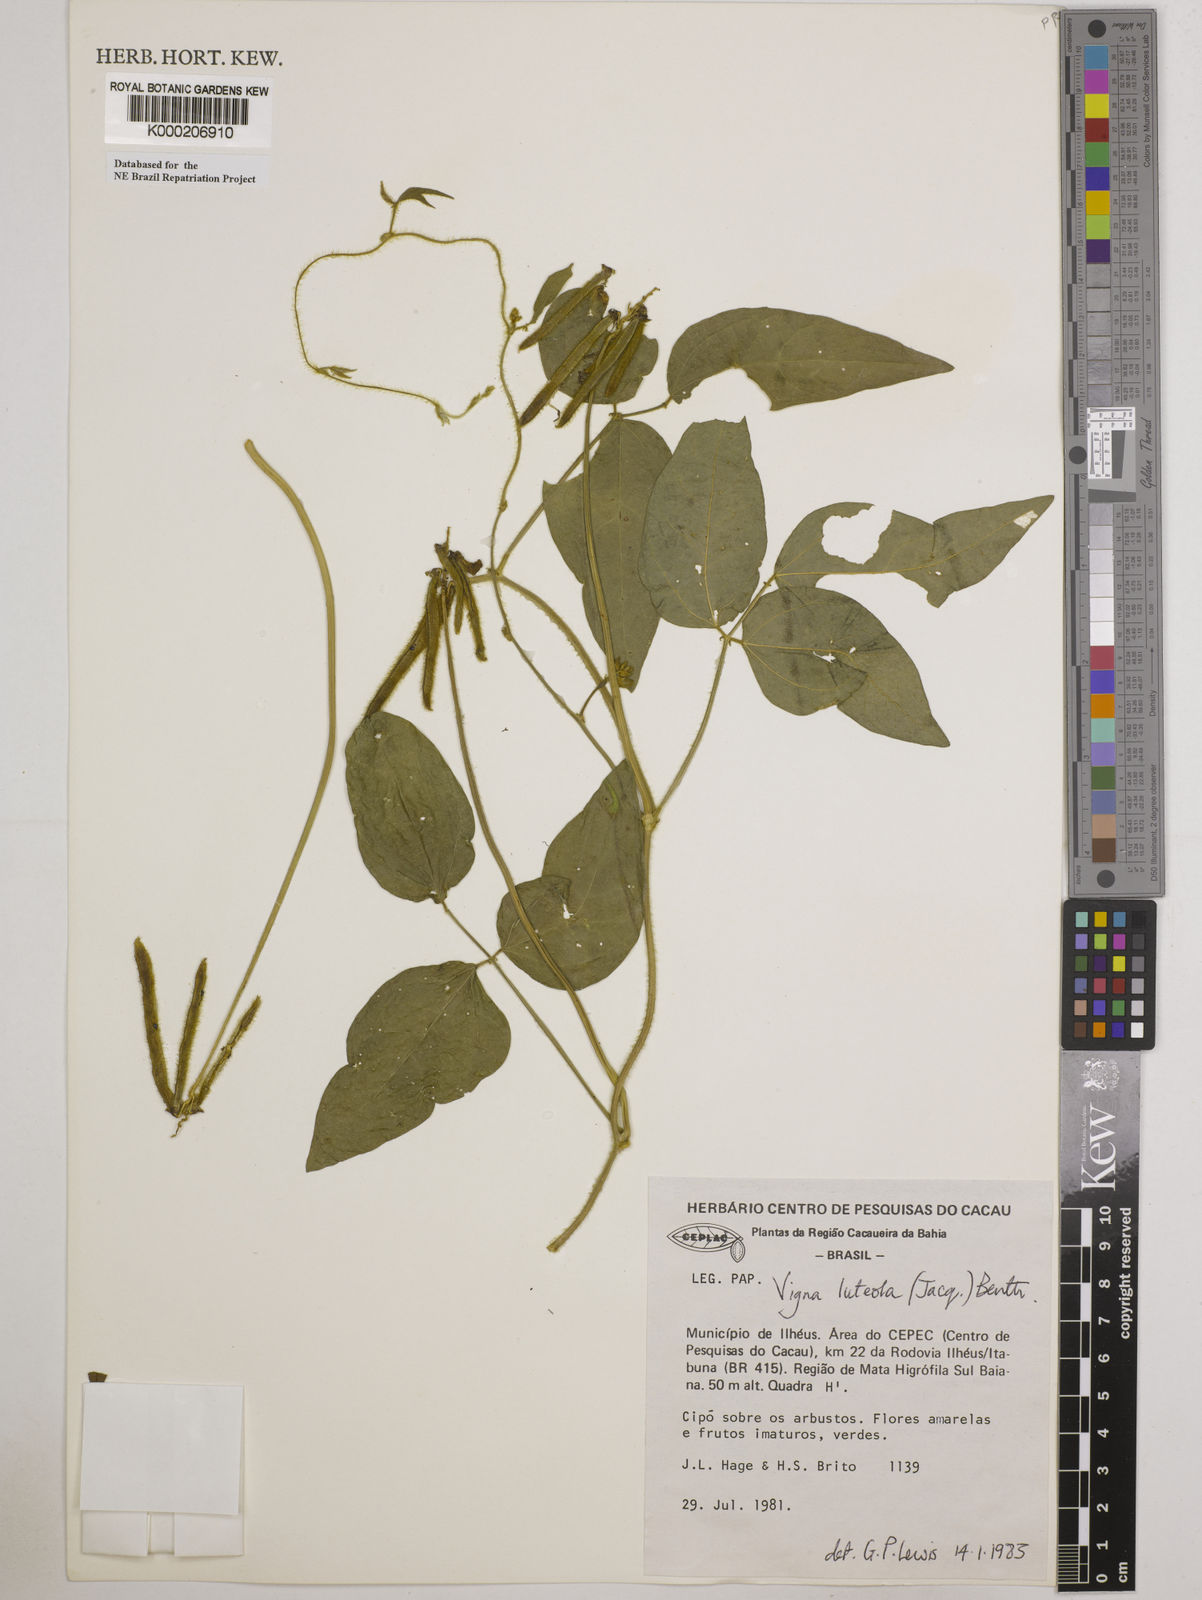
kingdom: Plantae
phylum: Tracheophyta
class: Magnoliopsida
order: Fabales
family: Fabaceae
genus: Vigna
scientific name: Vigna luteola
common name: Hairypod cowpea
